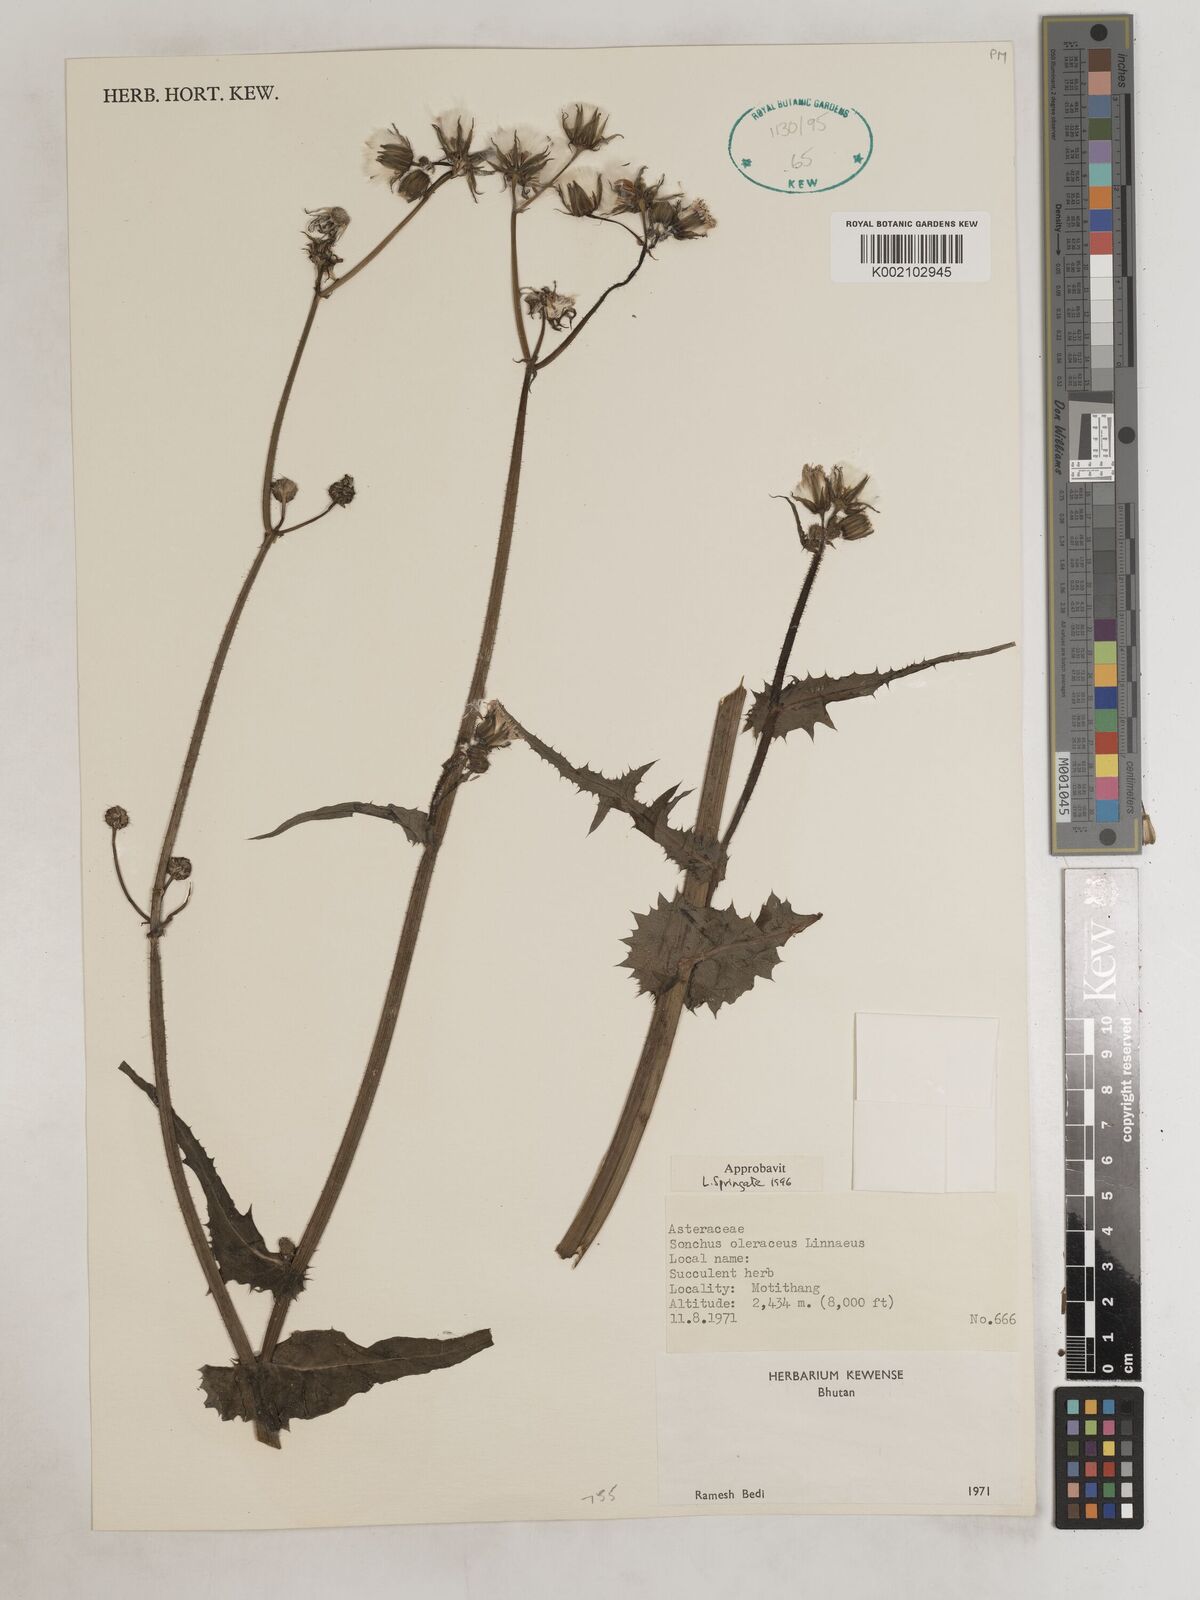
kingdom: Plantae
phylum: Tracheophyta
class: Magnoliopsida
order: Asterales
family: Asteraceae
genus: Sonchus
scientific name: Sonchus arvensis
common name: Perennial sow-thistle
